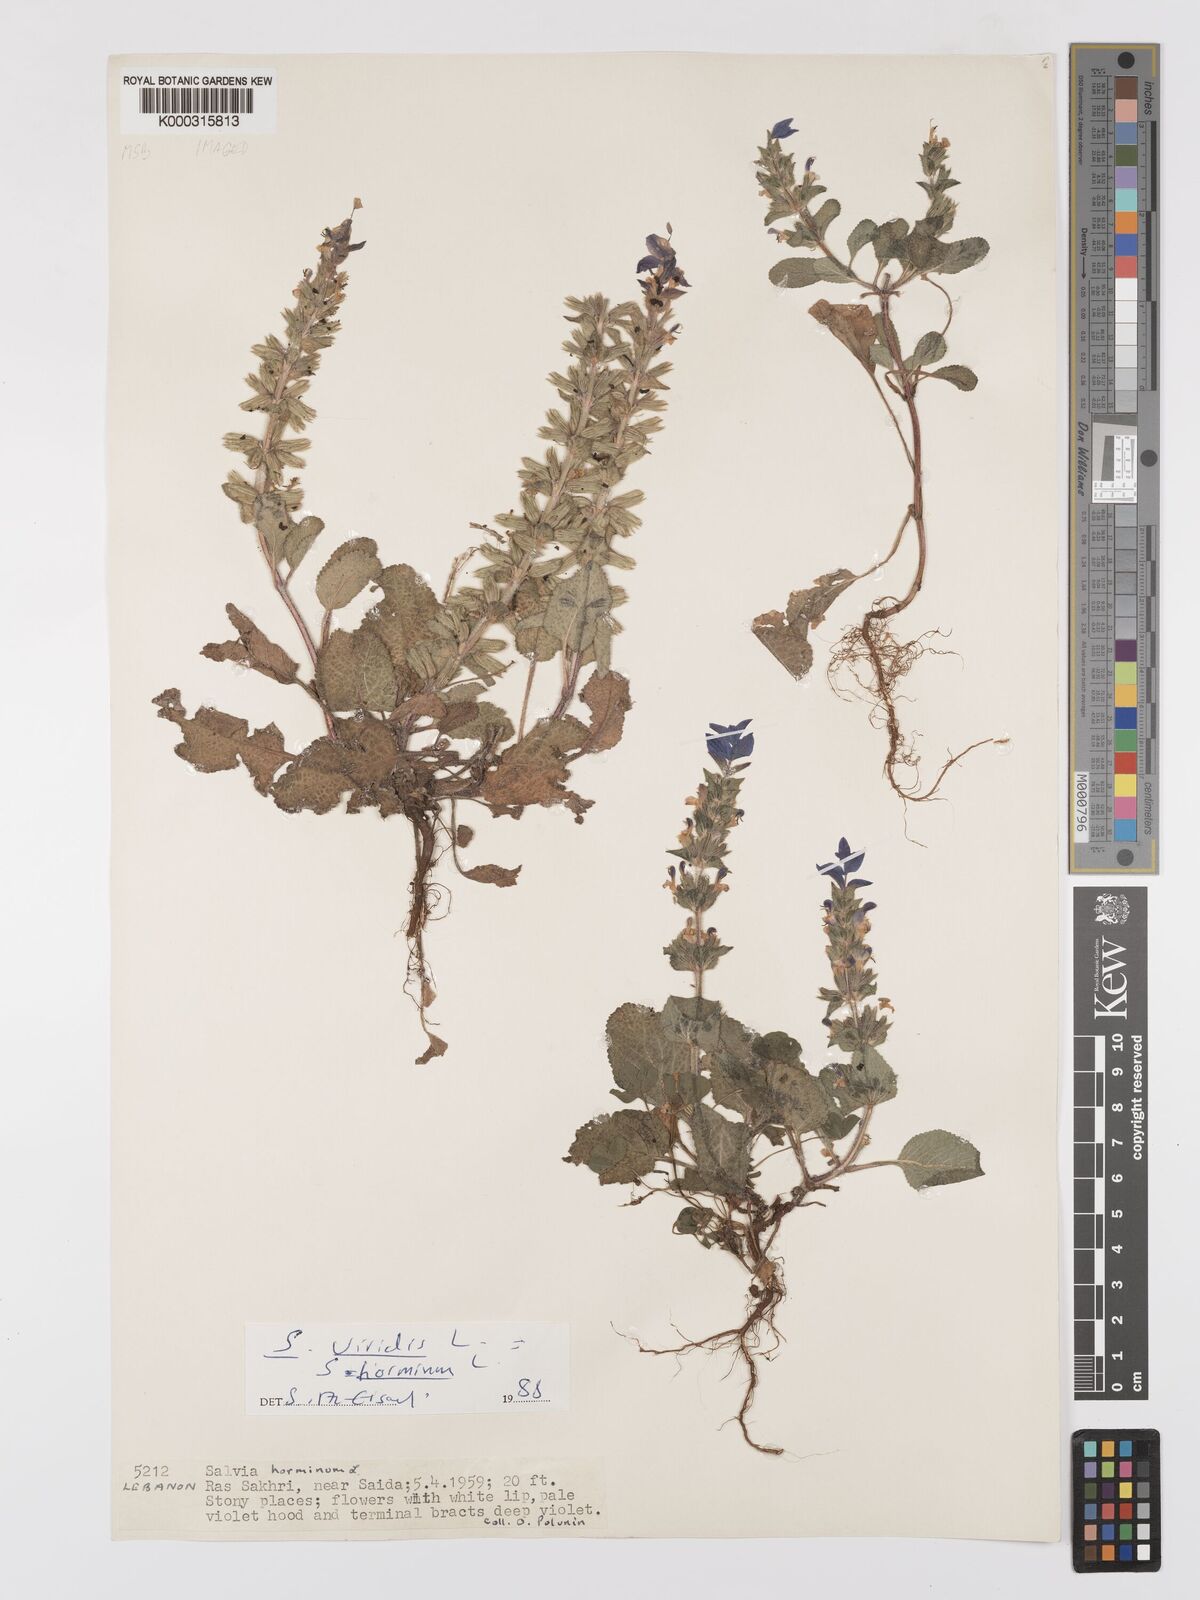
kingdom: Plantae
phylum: Tracheophyta
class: Magnoliopsida
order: Lamiales
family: Lamiaceae
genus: Salvia
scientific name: Salvia viridis
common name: Annual clary
